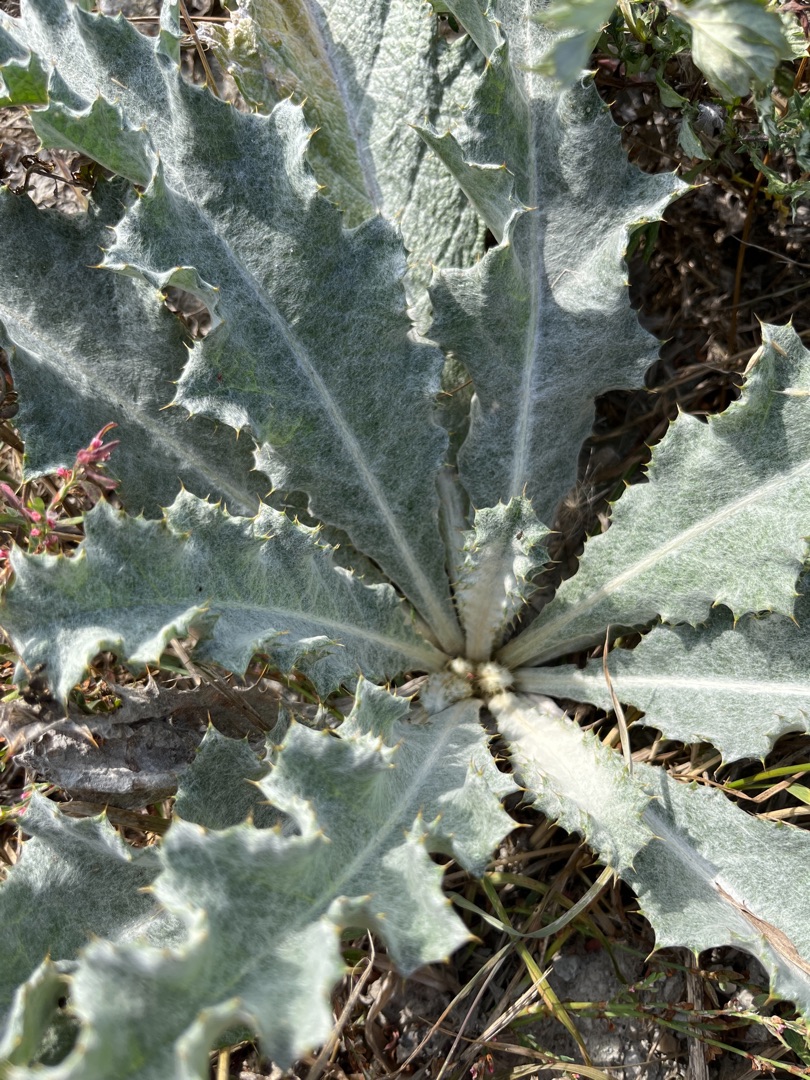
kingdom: Plantae
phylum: Tracheophyta
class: Magnoliopsida
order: Asterales
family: Asteraceae
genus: Onopordum
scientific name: Onopordum acanthium
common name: Æselfoder
